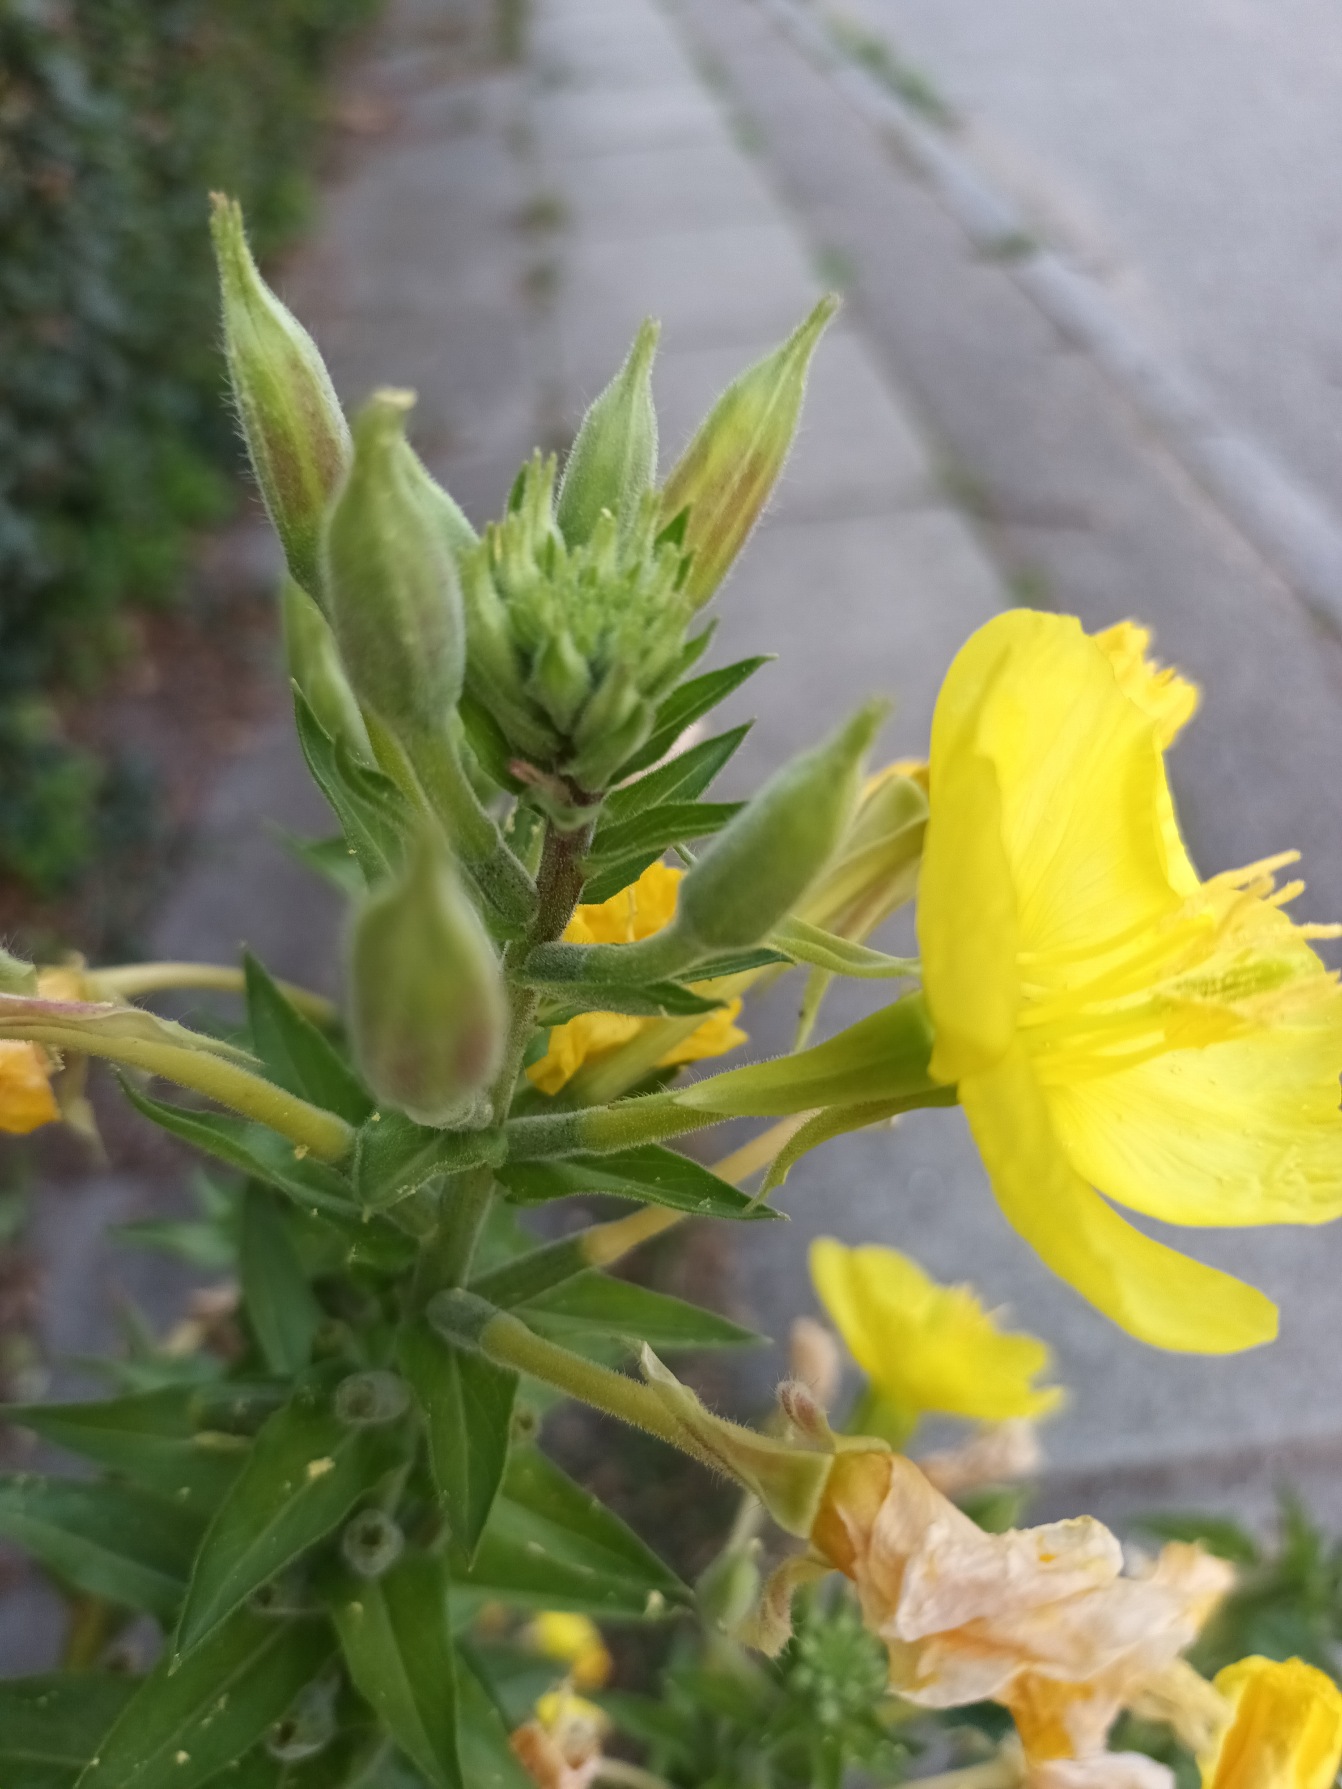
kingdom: Plantae
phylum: Tracheophyta
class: Magnoliopsida
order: Myrtales
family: Onagraceae
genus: Oenothera
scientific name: Oenothera fallax
